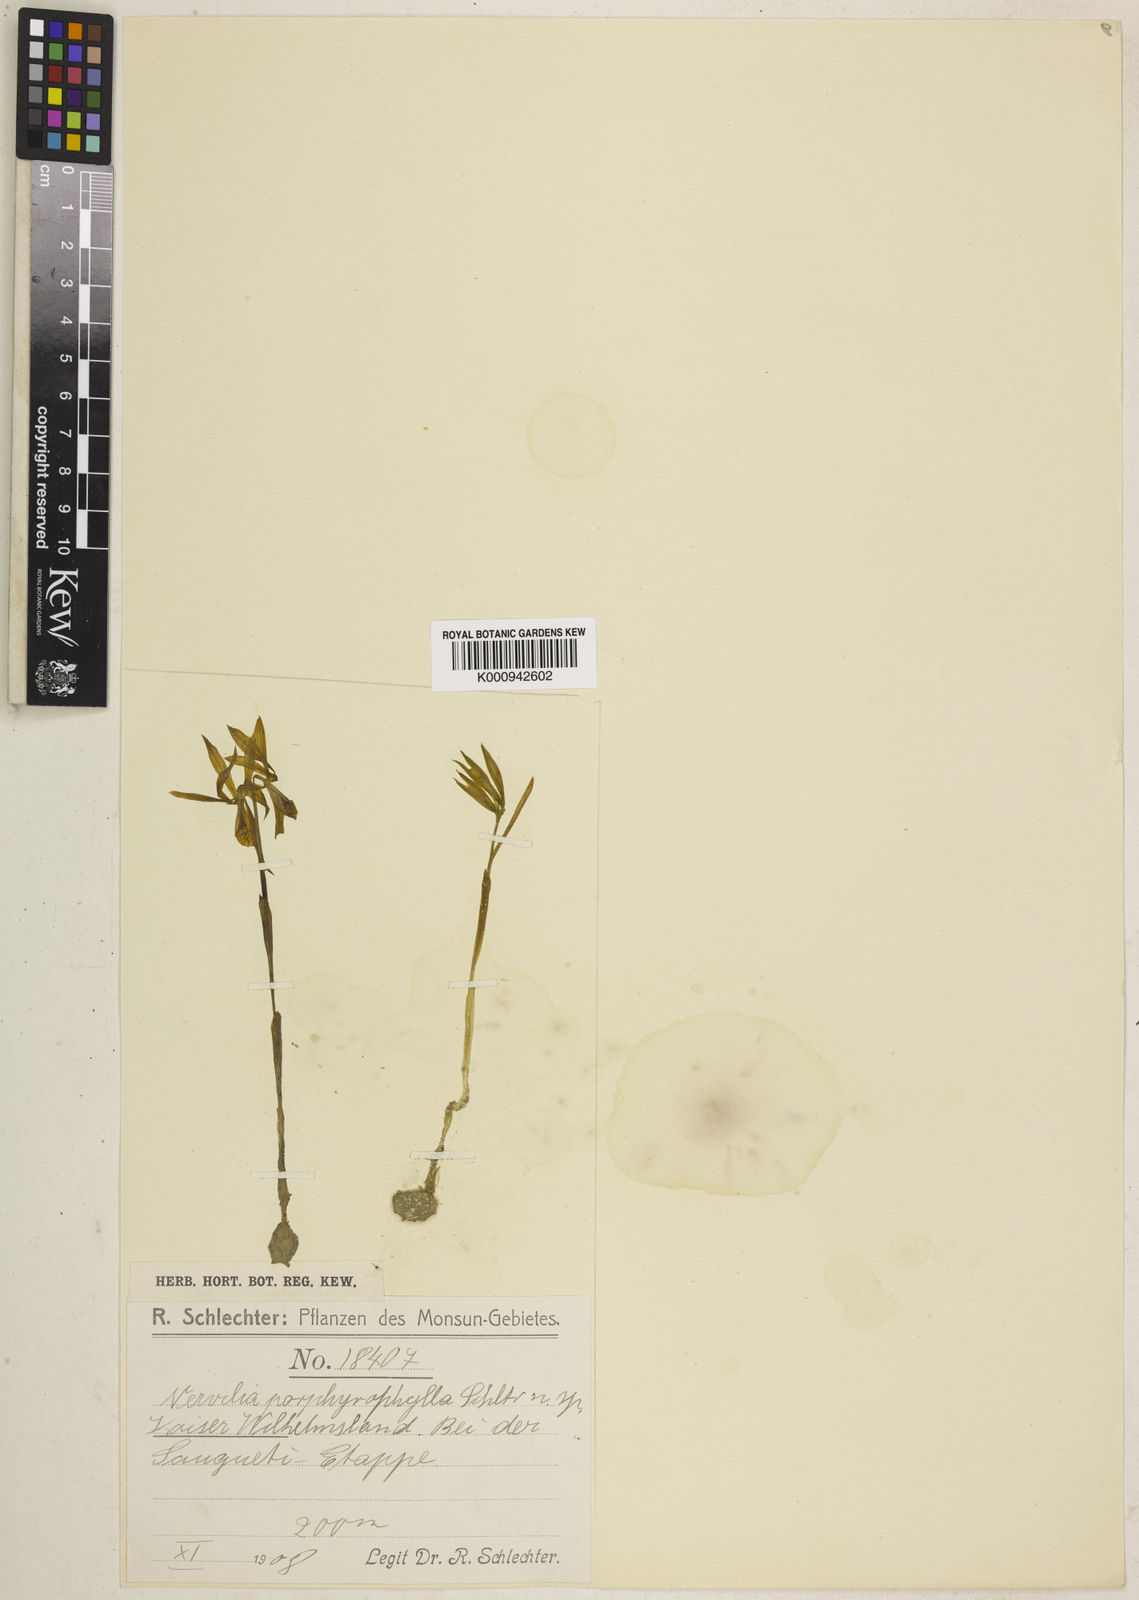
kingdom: Plantae
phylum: Tracheophyta
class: Liliopsida
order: Asparagales
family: Orchidaceae
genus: Nervilia
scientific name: Nervilia plicata
